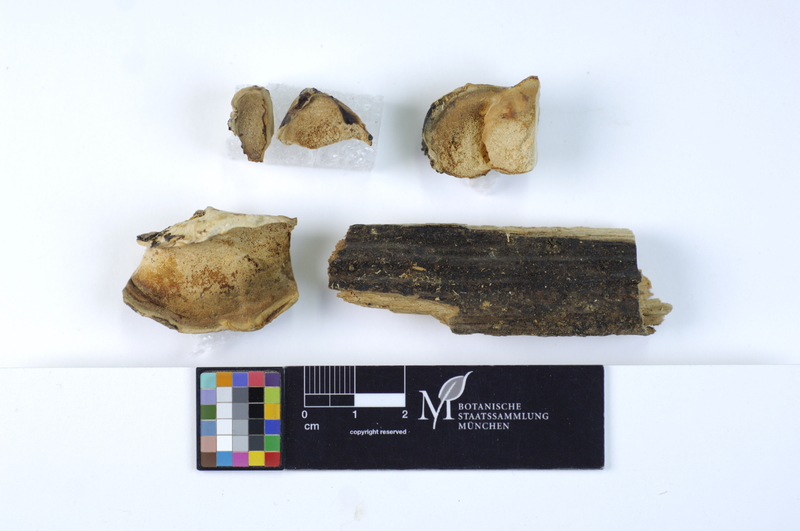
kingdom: Plantae
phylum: Tracheophyta
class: Magnoliopsida
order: Fagales
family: Betulaceae
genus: Carpinus
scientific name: Carpinus
